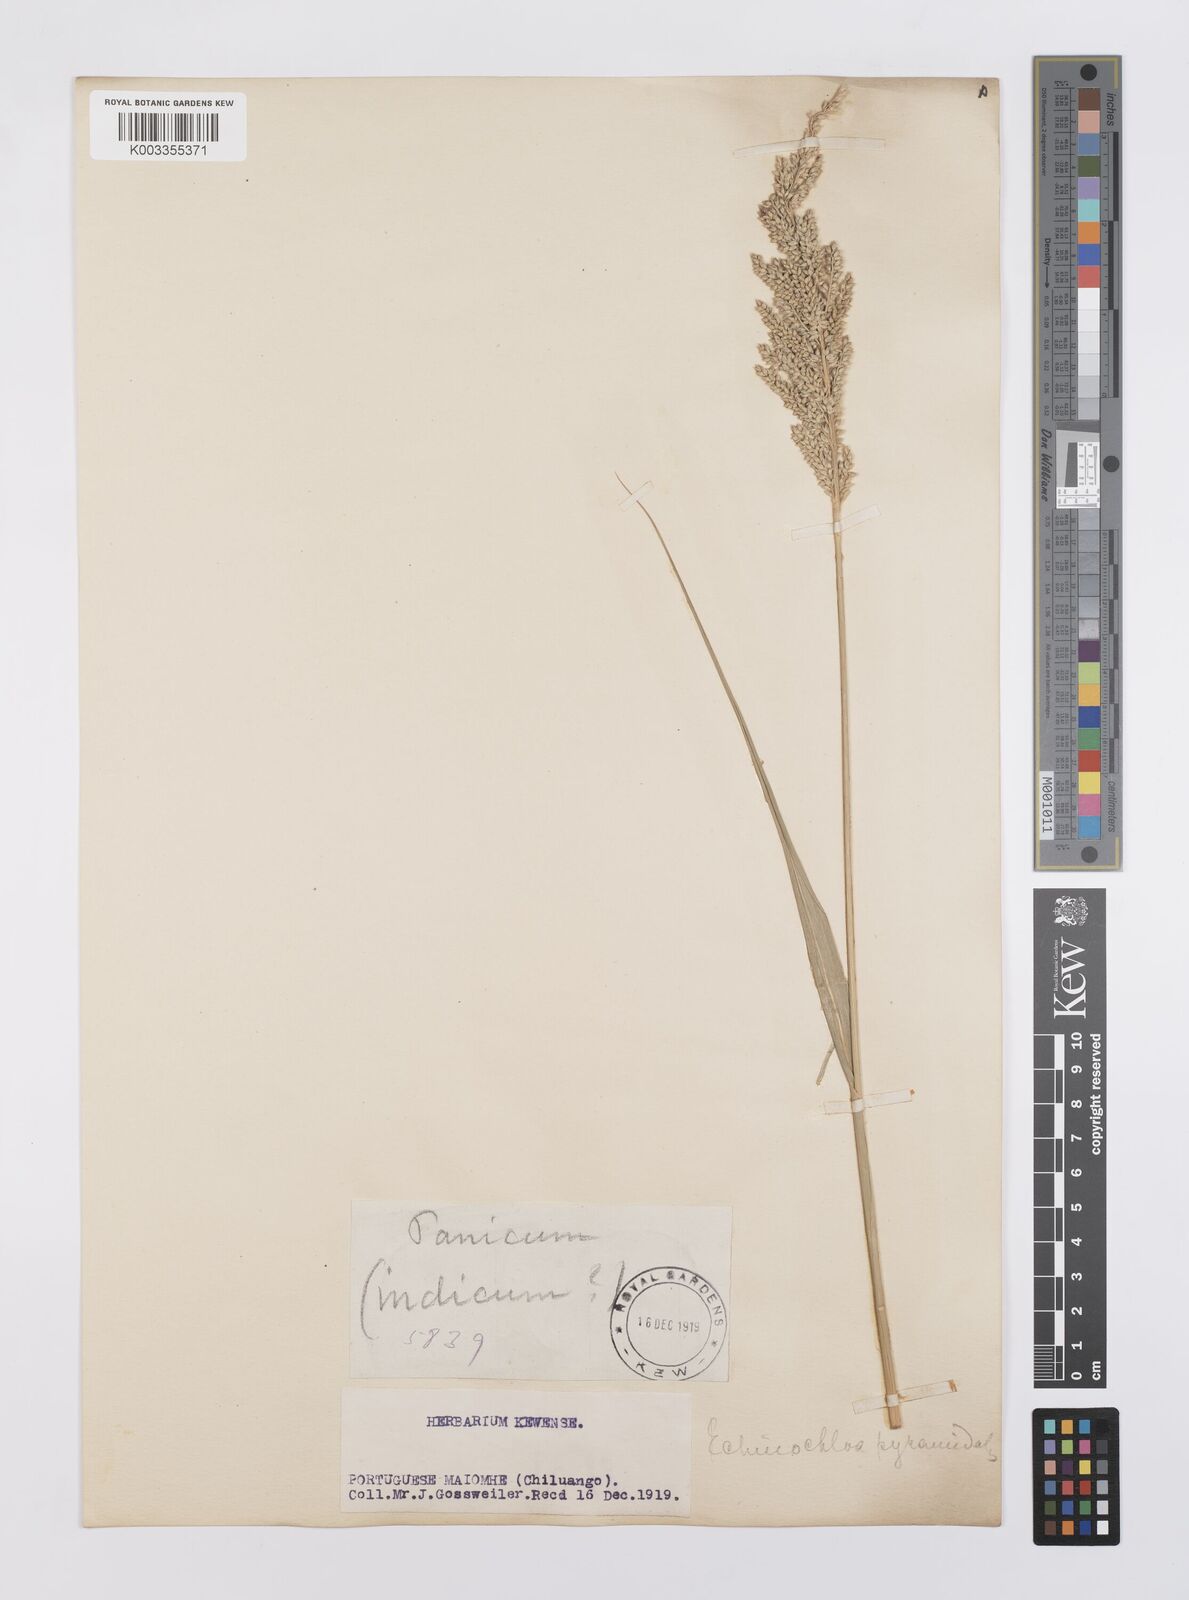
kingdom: Plantae
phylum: Tracheophyta
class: Liliopsida
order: Poales
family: Poaceae
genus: Echinochloa
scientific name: Echinochloa pyramidalis
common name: Antelope grass
